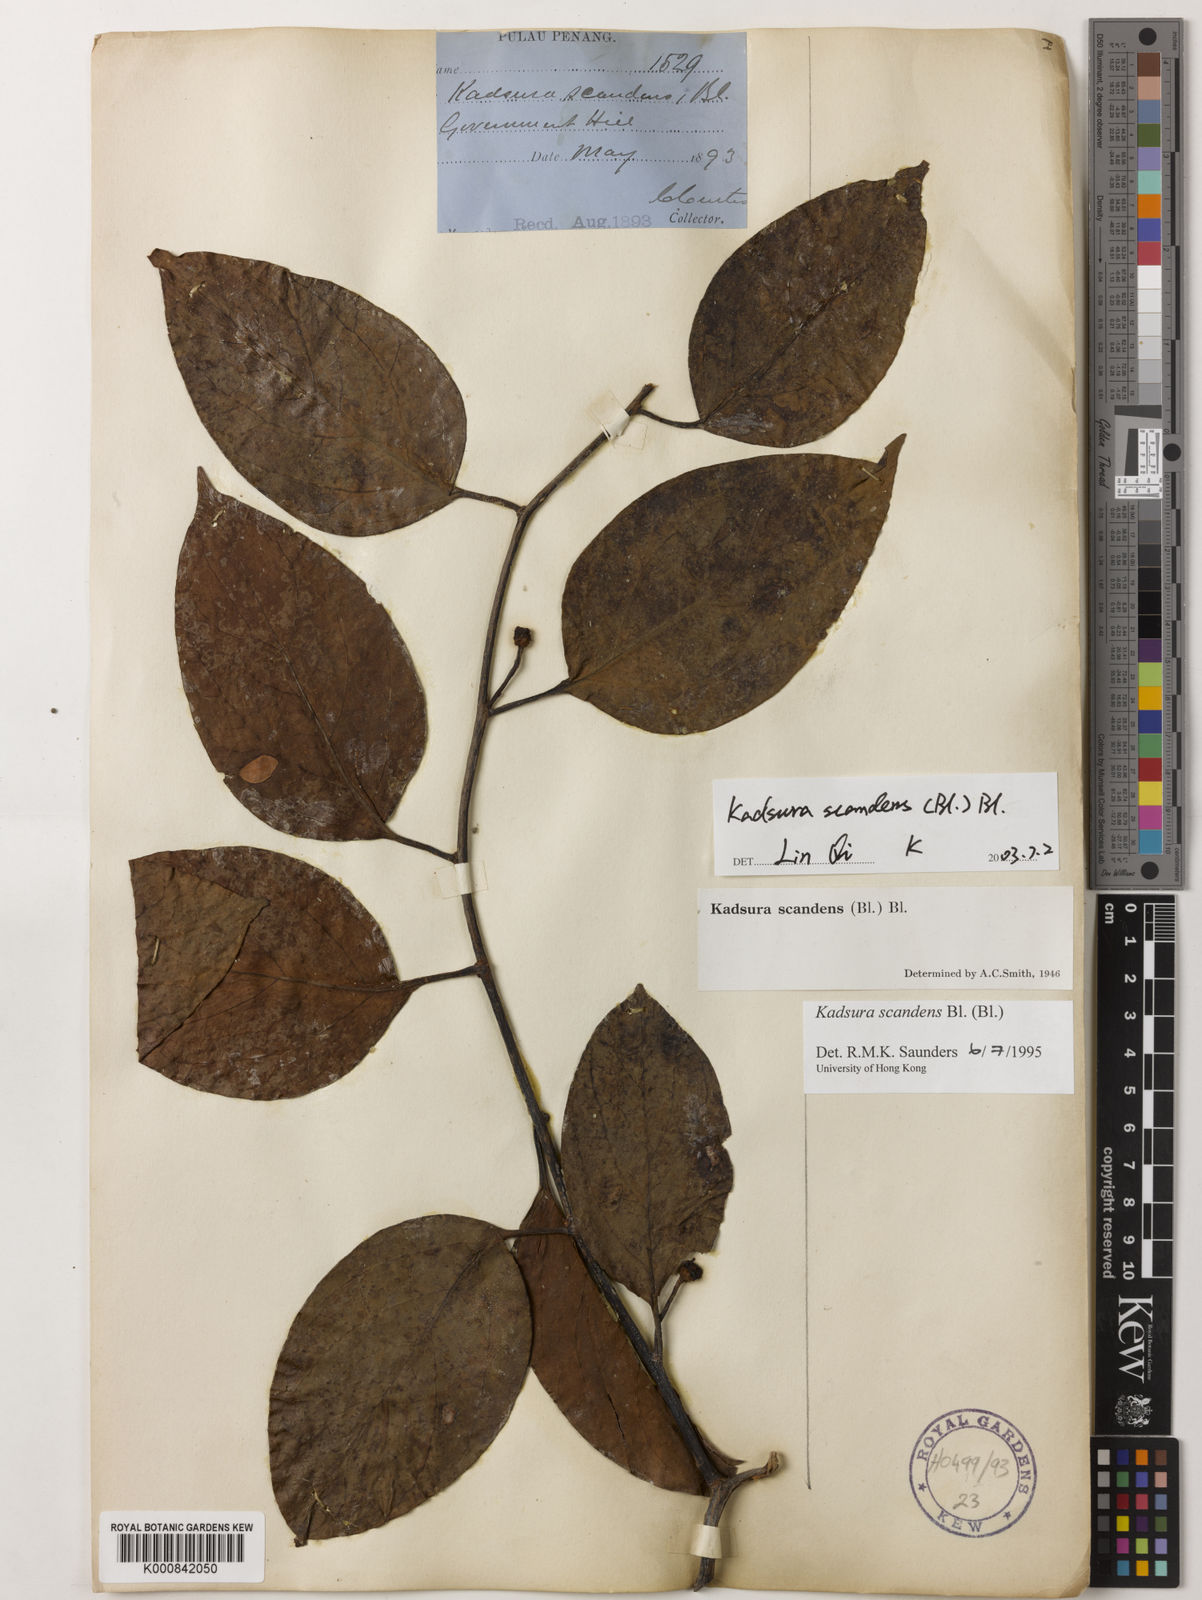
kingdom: Plantae
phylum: Tracheophyta
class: Magnoliopsida
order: Austrobaileyales
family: Schisandraceae
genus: Kadsura
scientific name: Kadsura scandens
